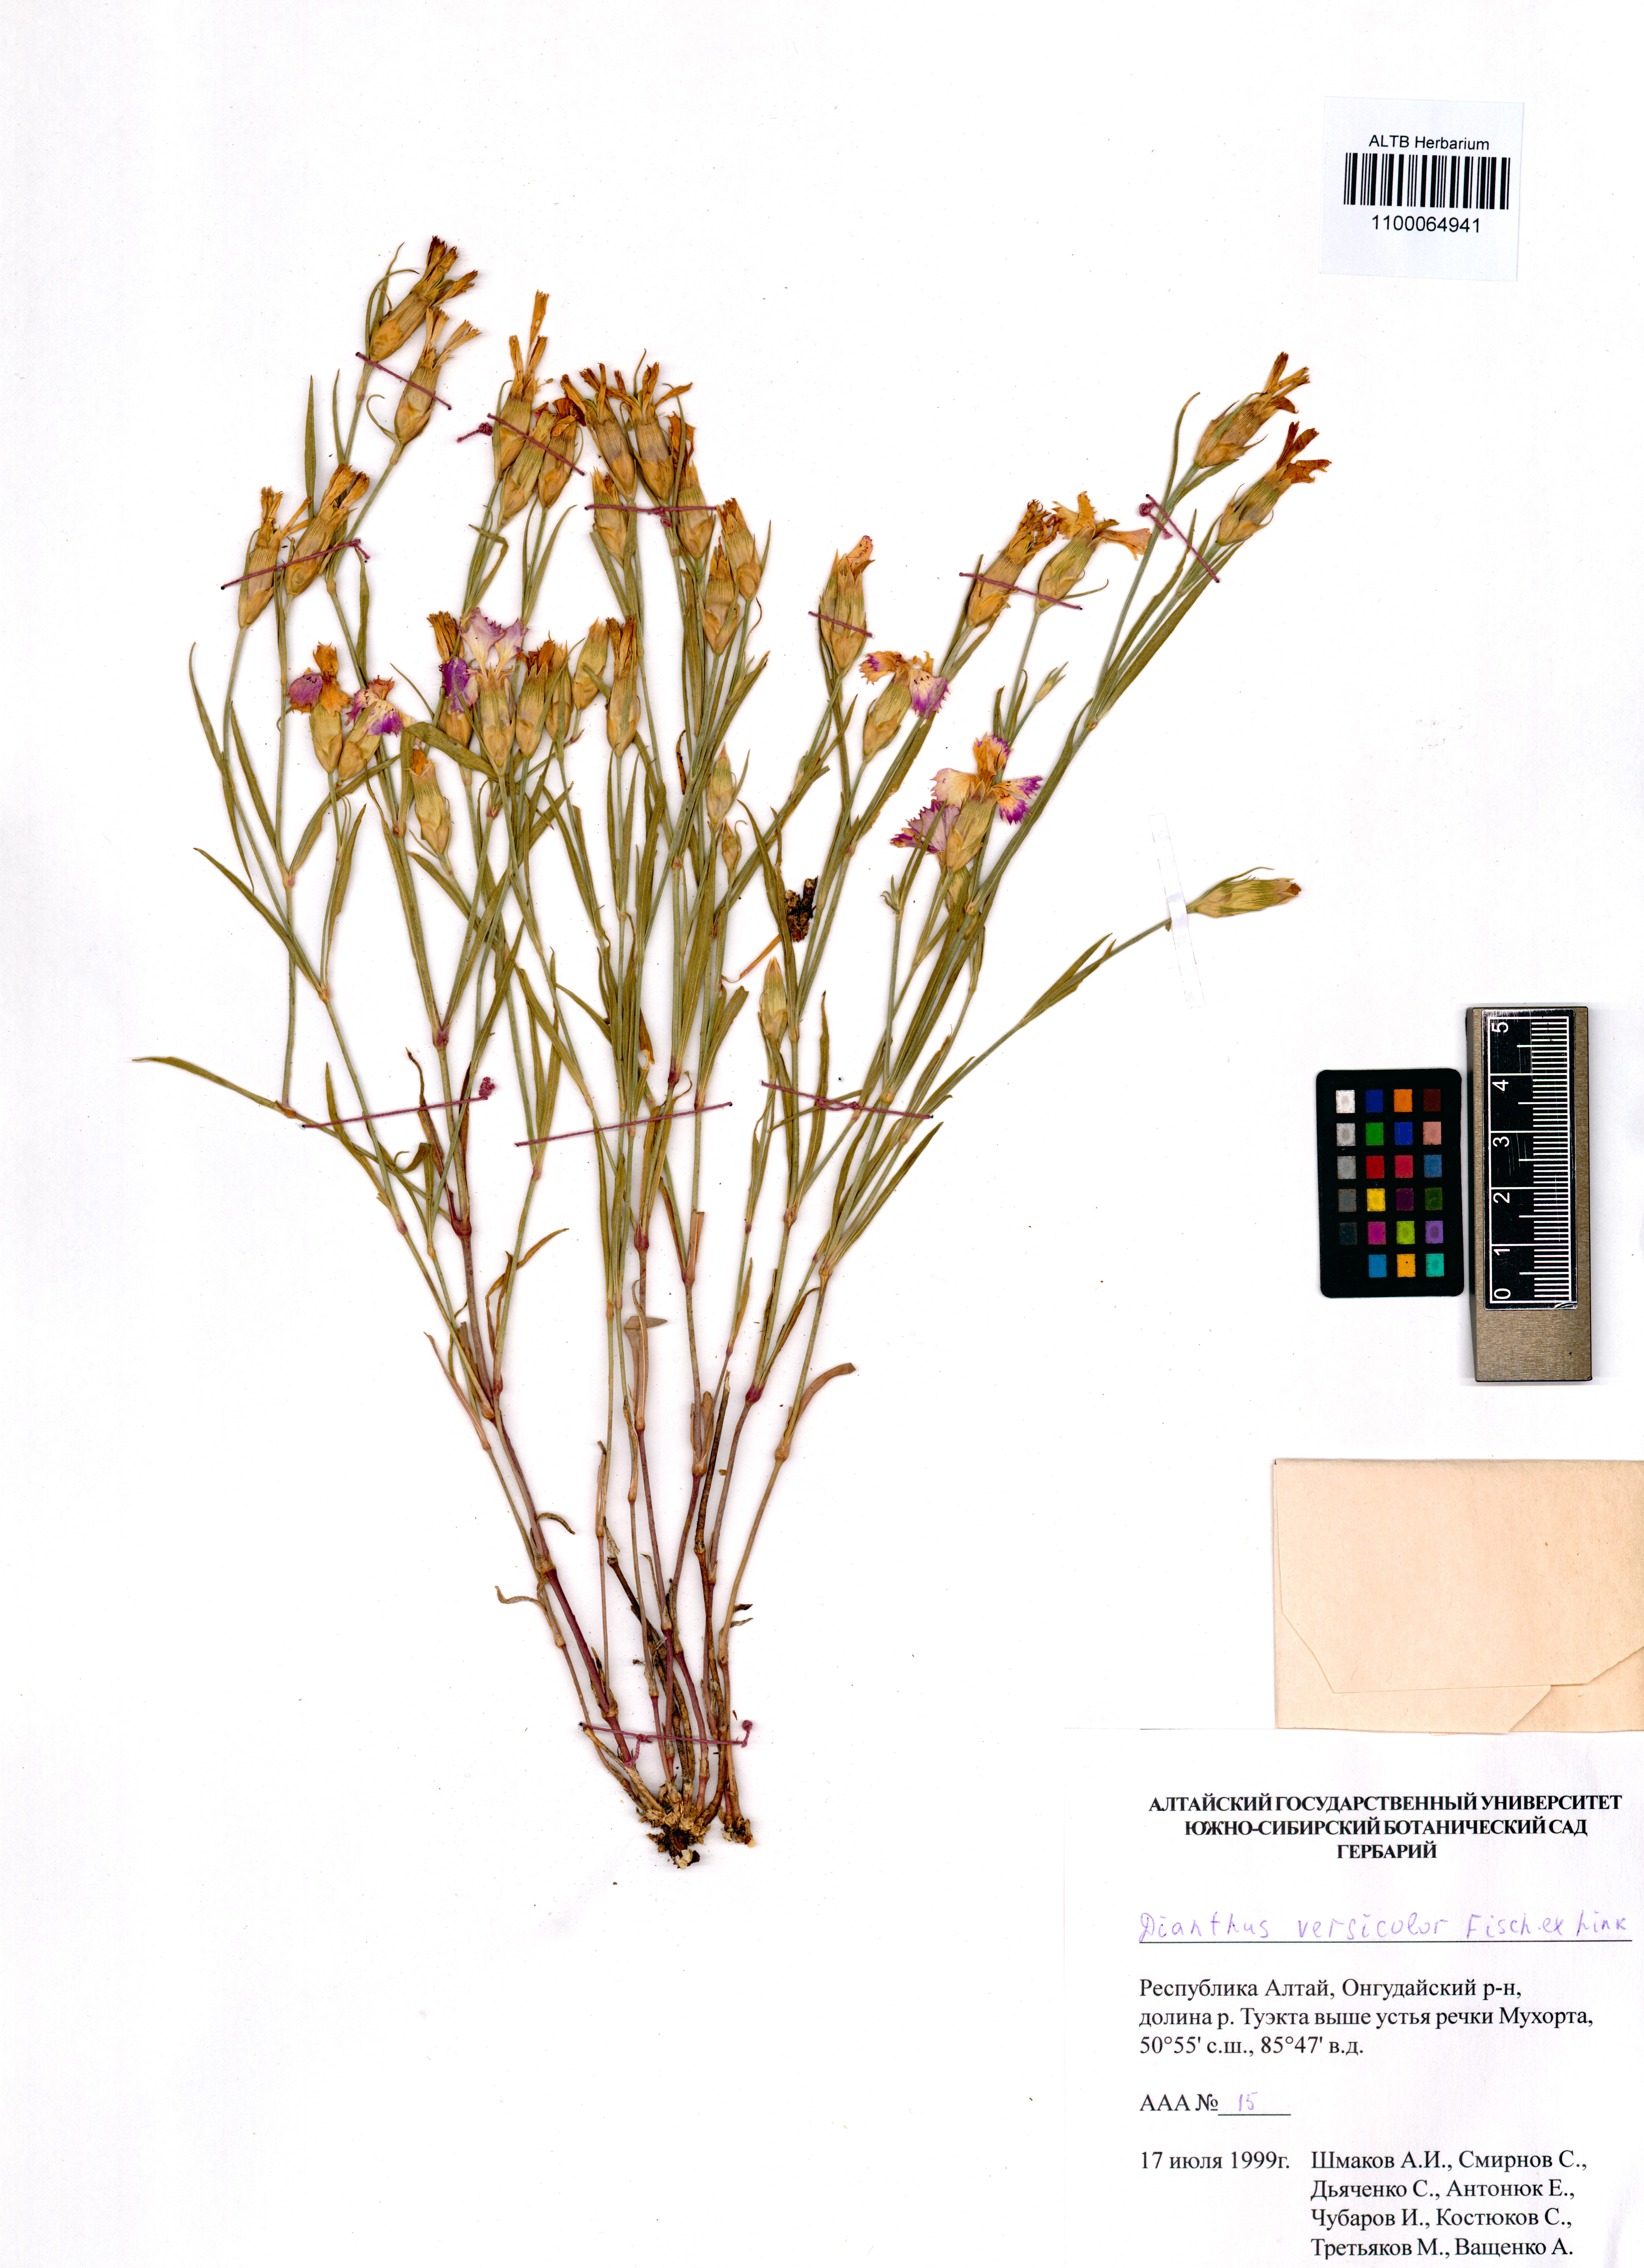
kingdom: Plantae
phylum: Tracheophyta
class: Magnoliopsida
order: Caryophyllales
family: Caryophyllaceae
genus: Dianthus
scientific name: Dianthus chinensis
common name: Rainbow pink
